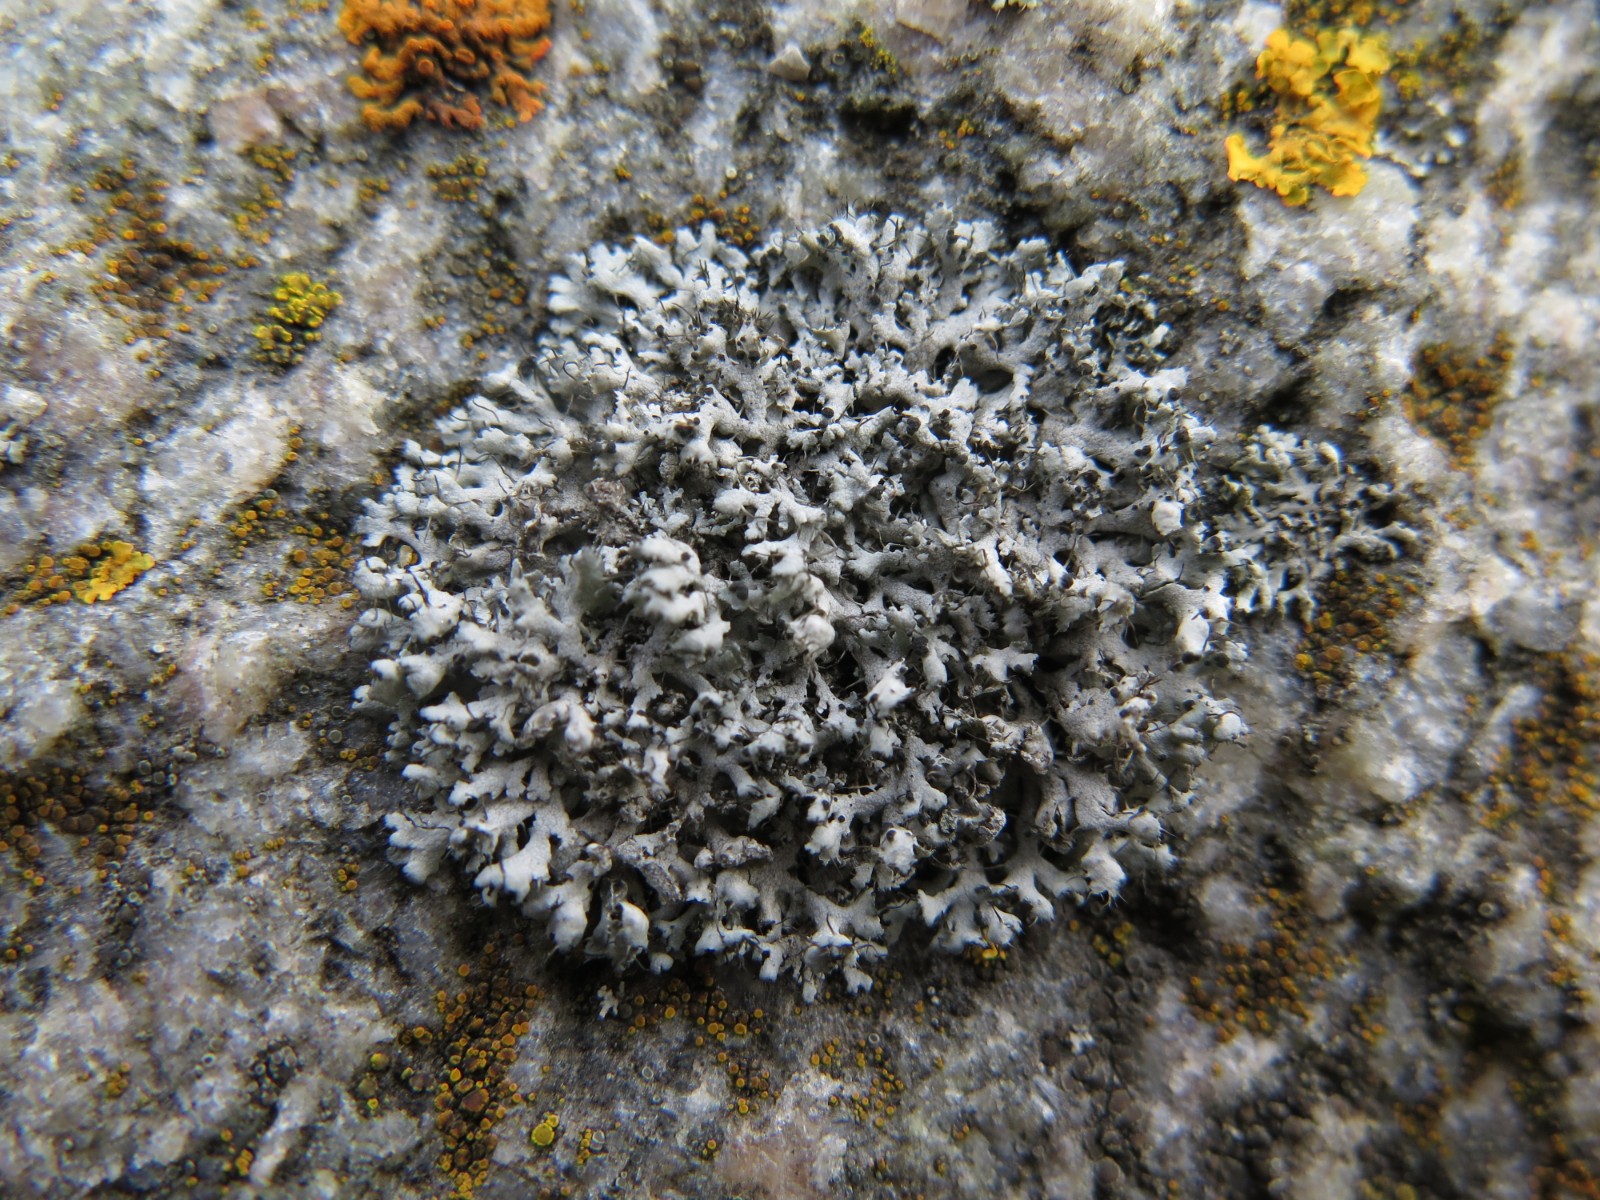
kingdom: Fungi
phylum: Ascomycota
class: Lecanoromycetes
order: Caliciales
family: Physciaceae
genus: Physcia
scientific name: Physcia adscendens
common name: hætte-rosetlav
